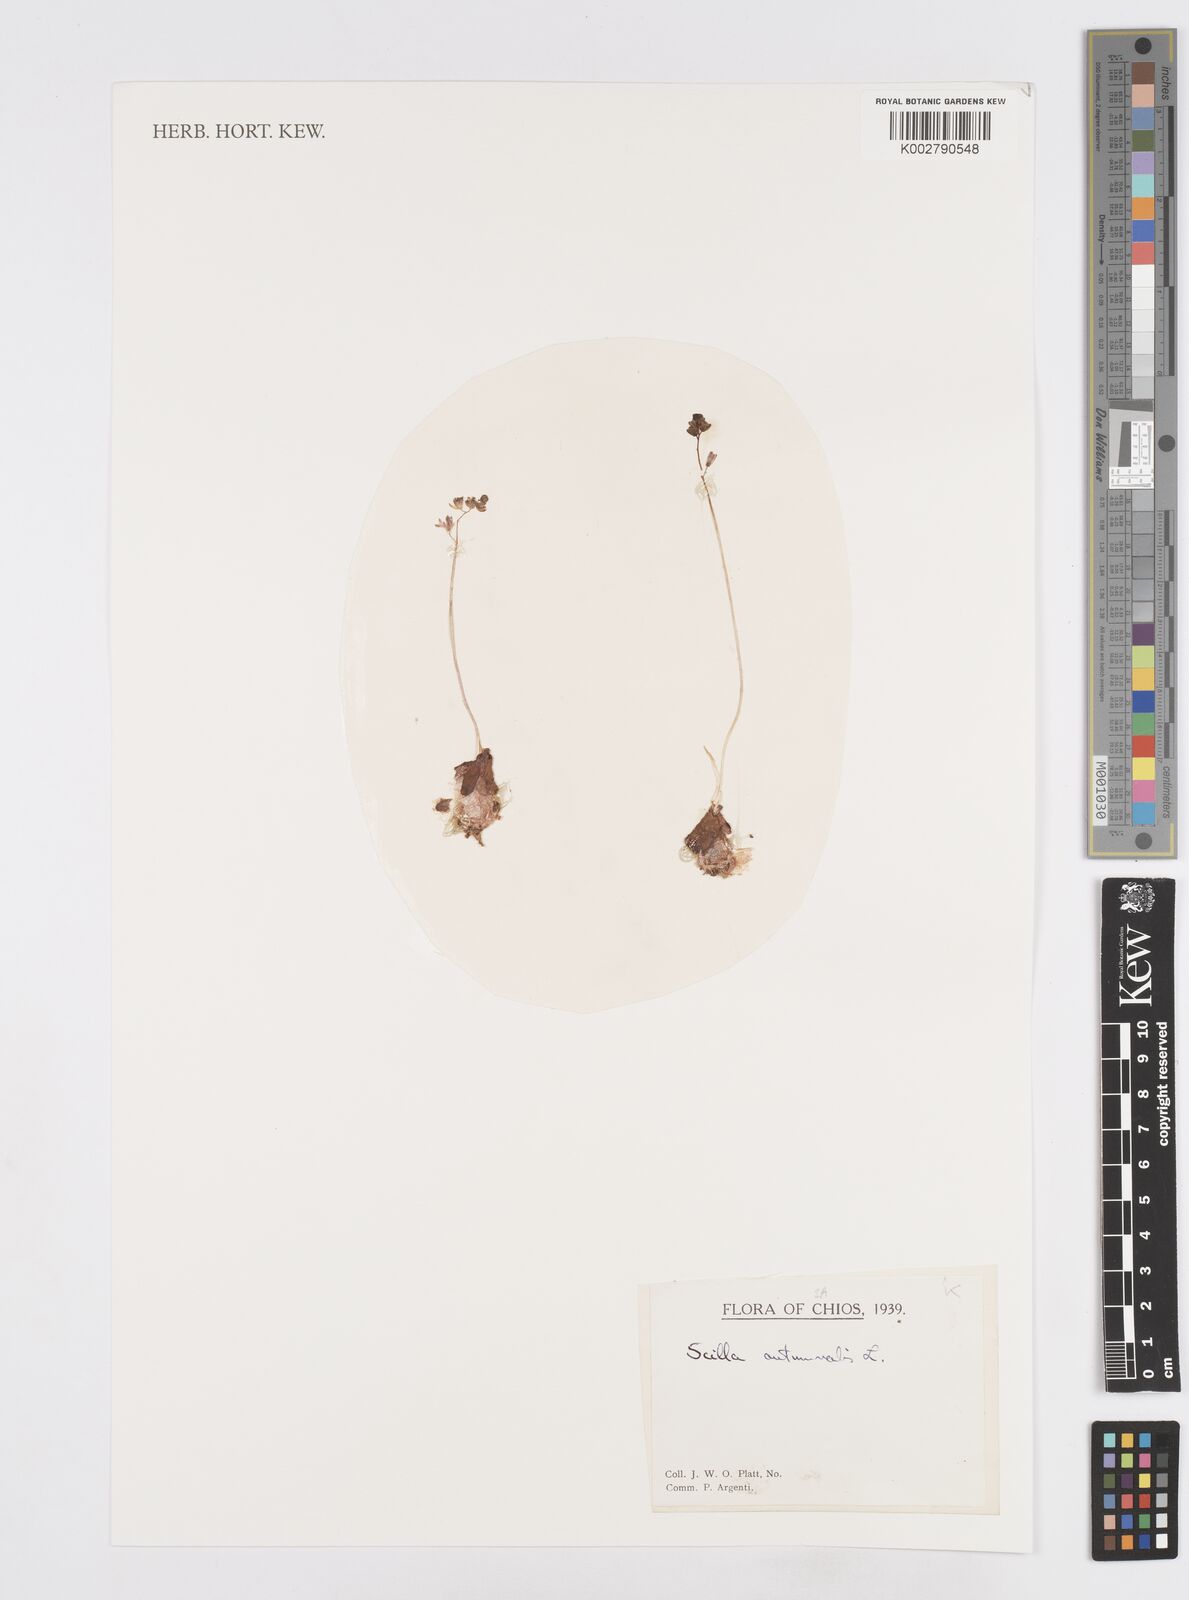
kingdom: Plantae
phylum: Tracheophyta
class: Liliopsida
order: Asparagales
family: Asparagaceae
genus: Prospero
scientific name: Prospero autumnale
